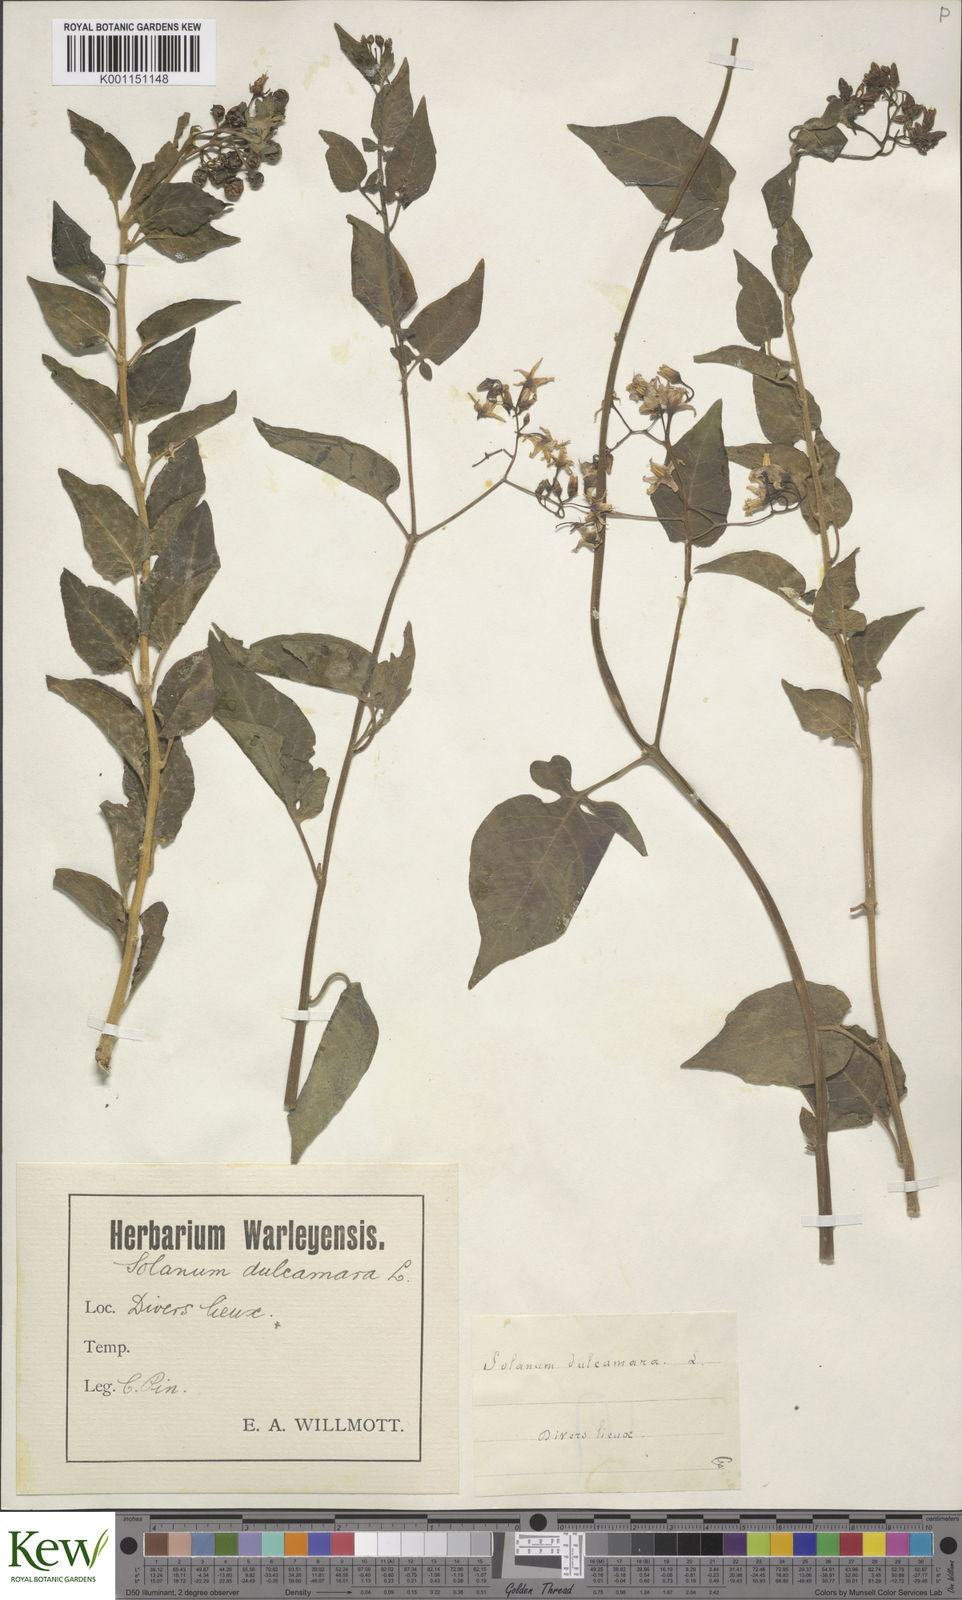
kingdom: Plantae
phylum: Tracheophyta
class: Magnoliopsida
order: Solanales
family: Solanaceae
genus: Solanum
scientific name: Solanum dulcamara
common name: Climbing nightshade
